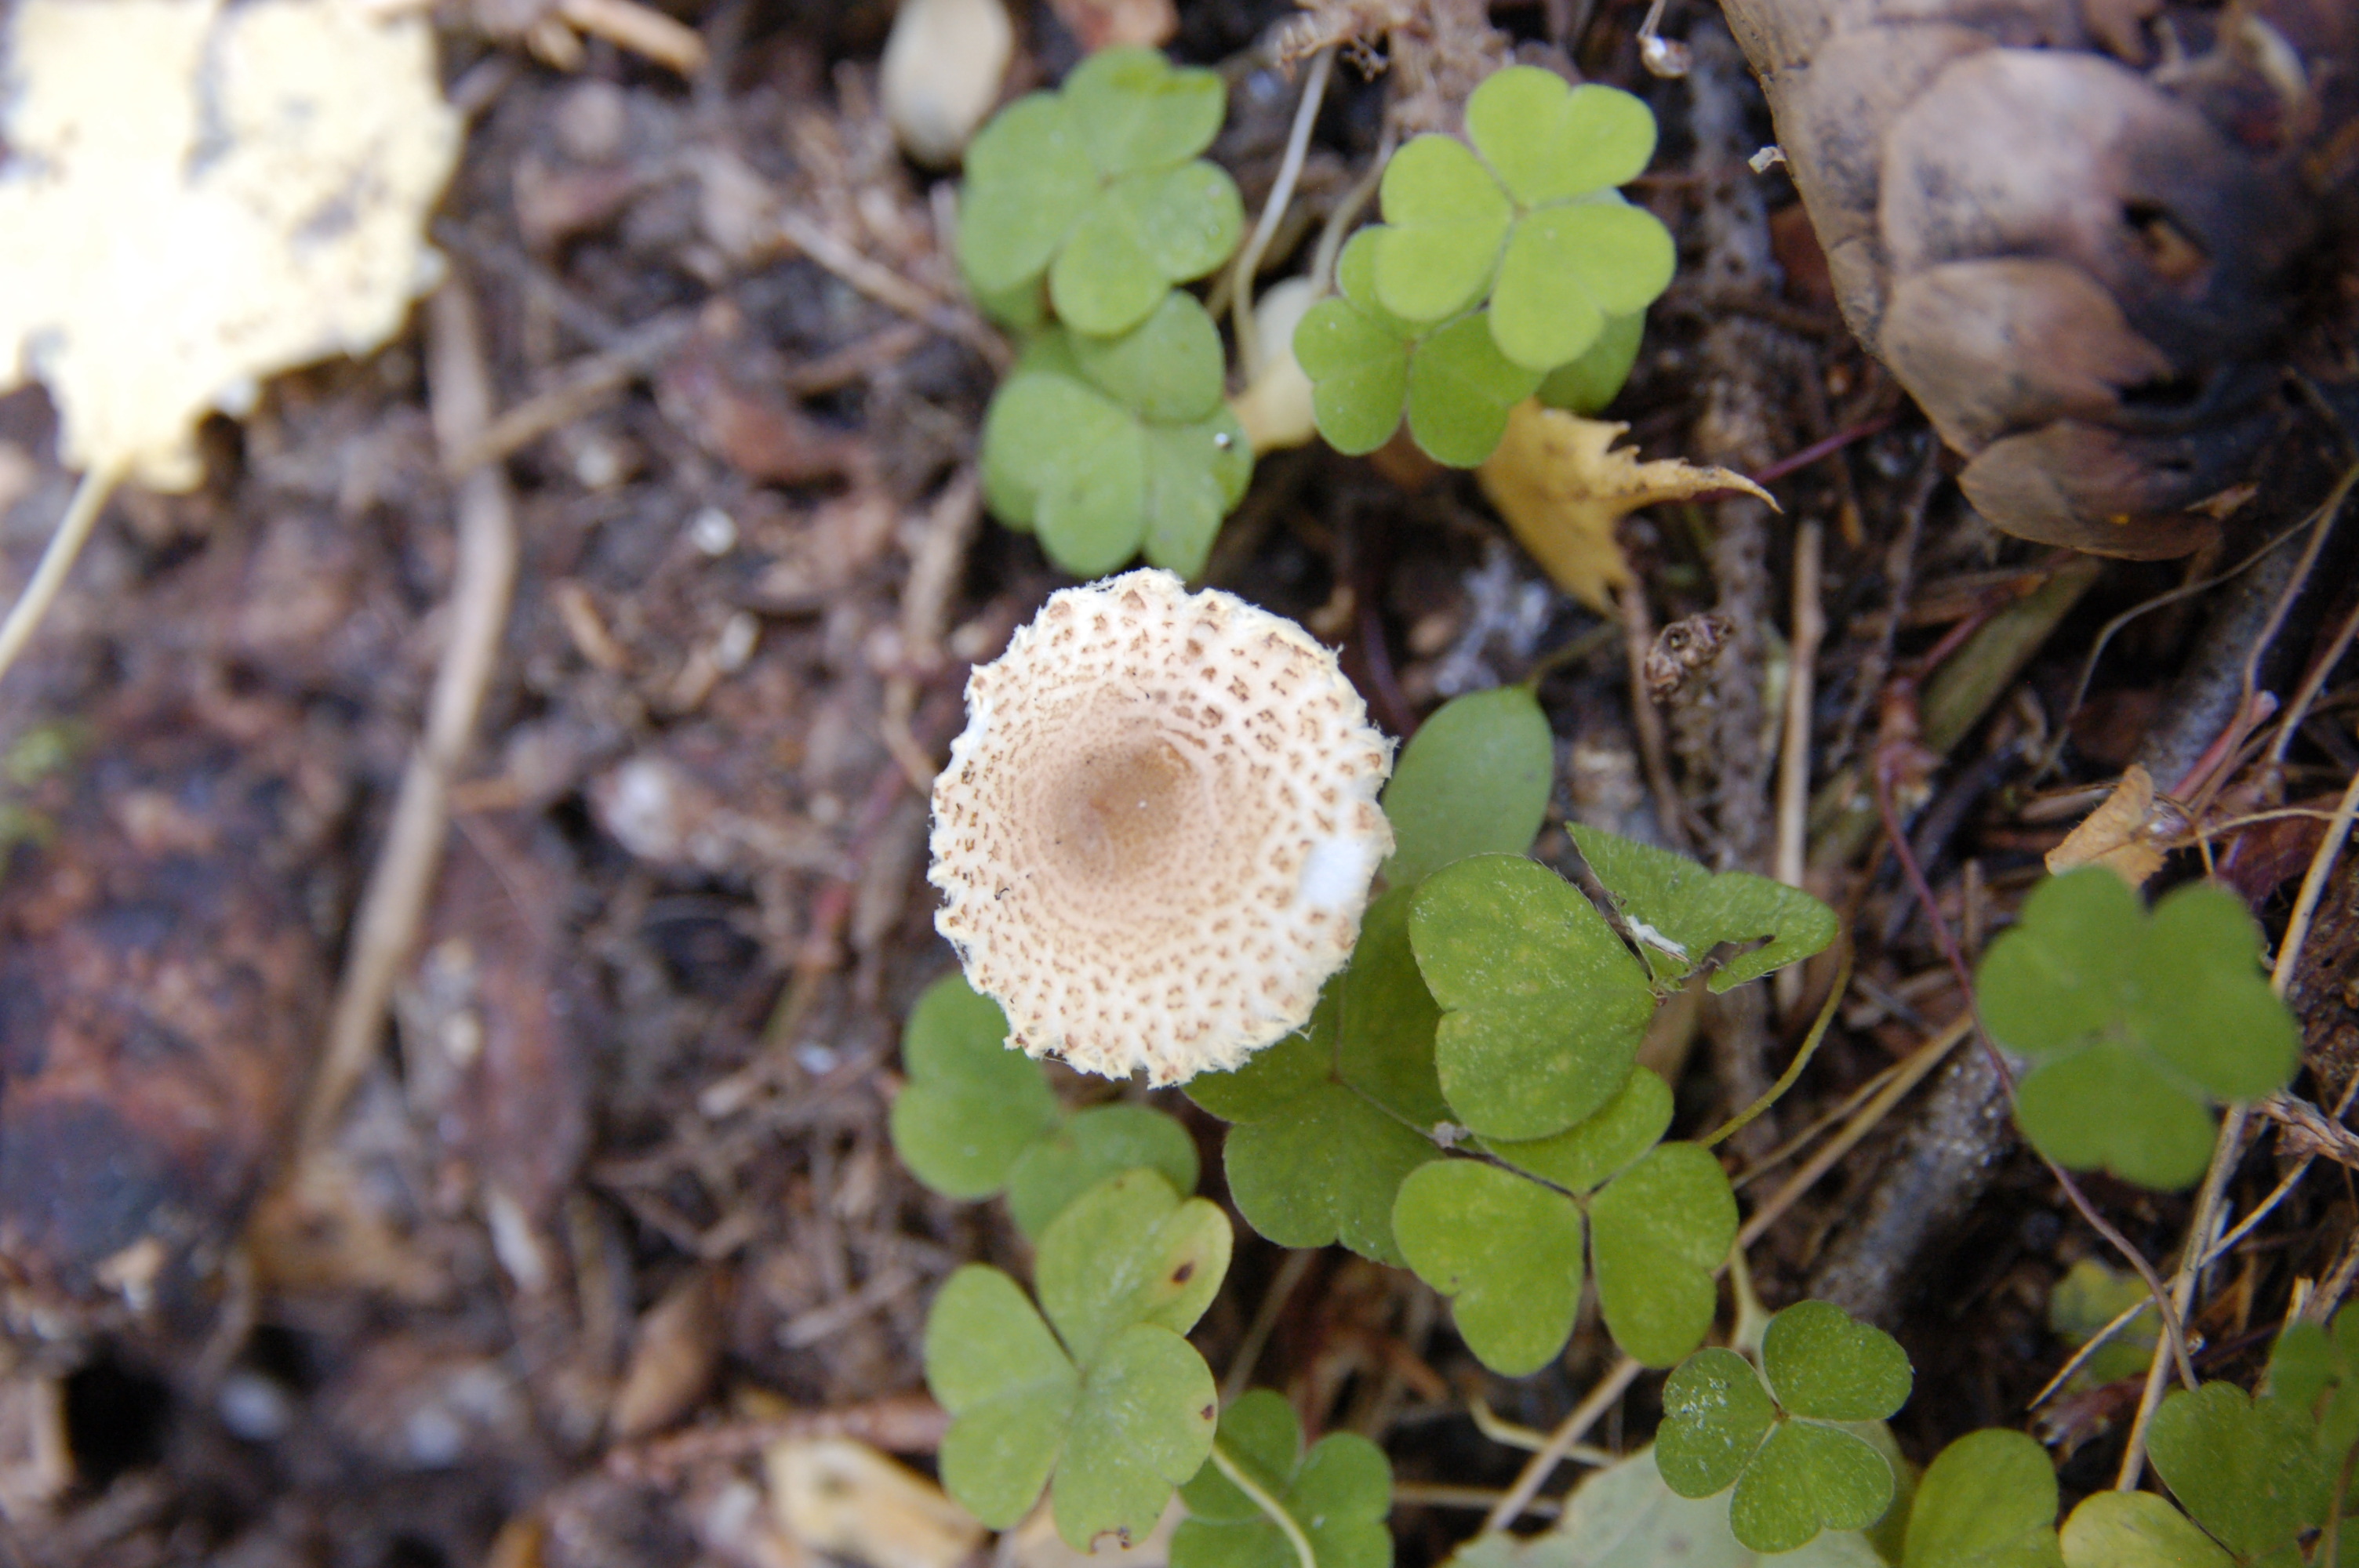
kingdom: Fungi
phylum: Basidiomycota
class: Agaricomycetes
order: Agaricales
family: Agaricaceae
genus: Lepiota
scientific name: Lepiota magnispora
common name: Yellowfoot dapperling
